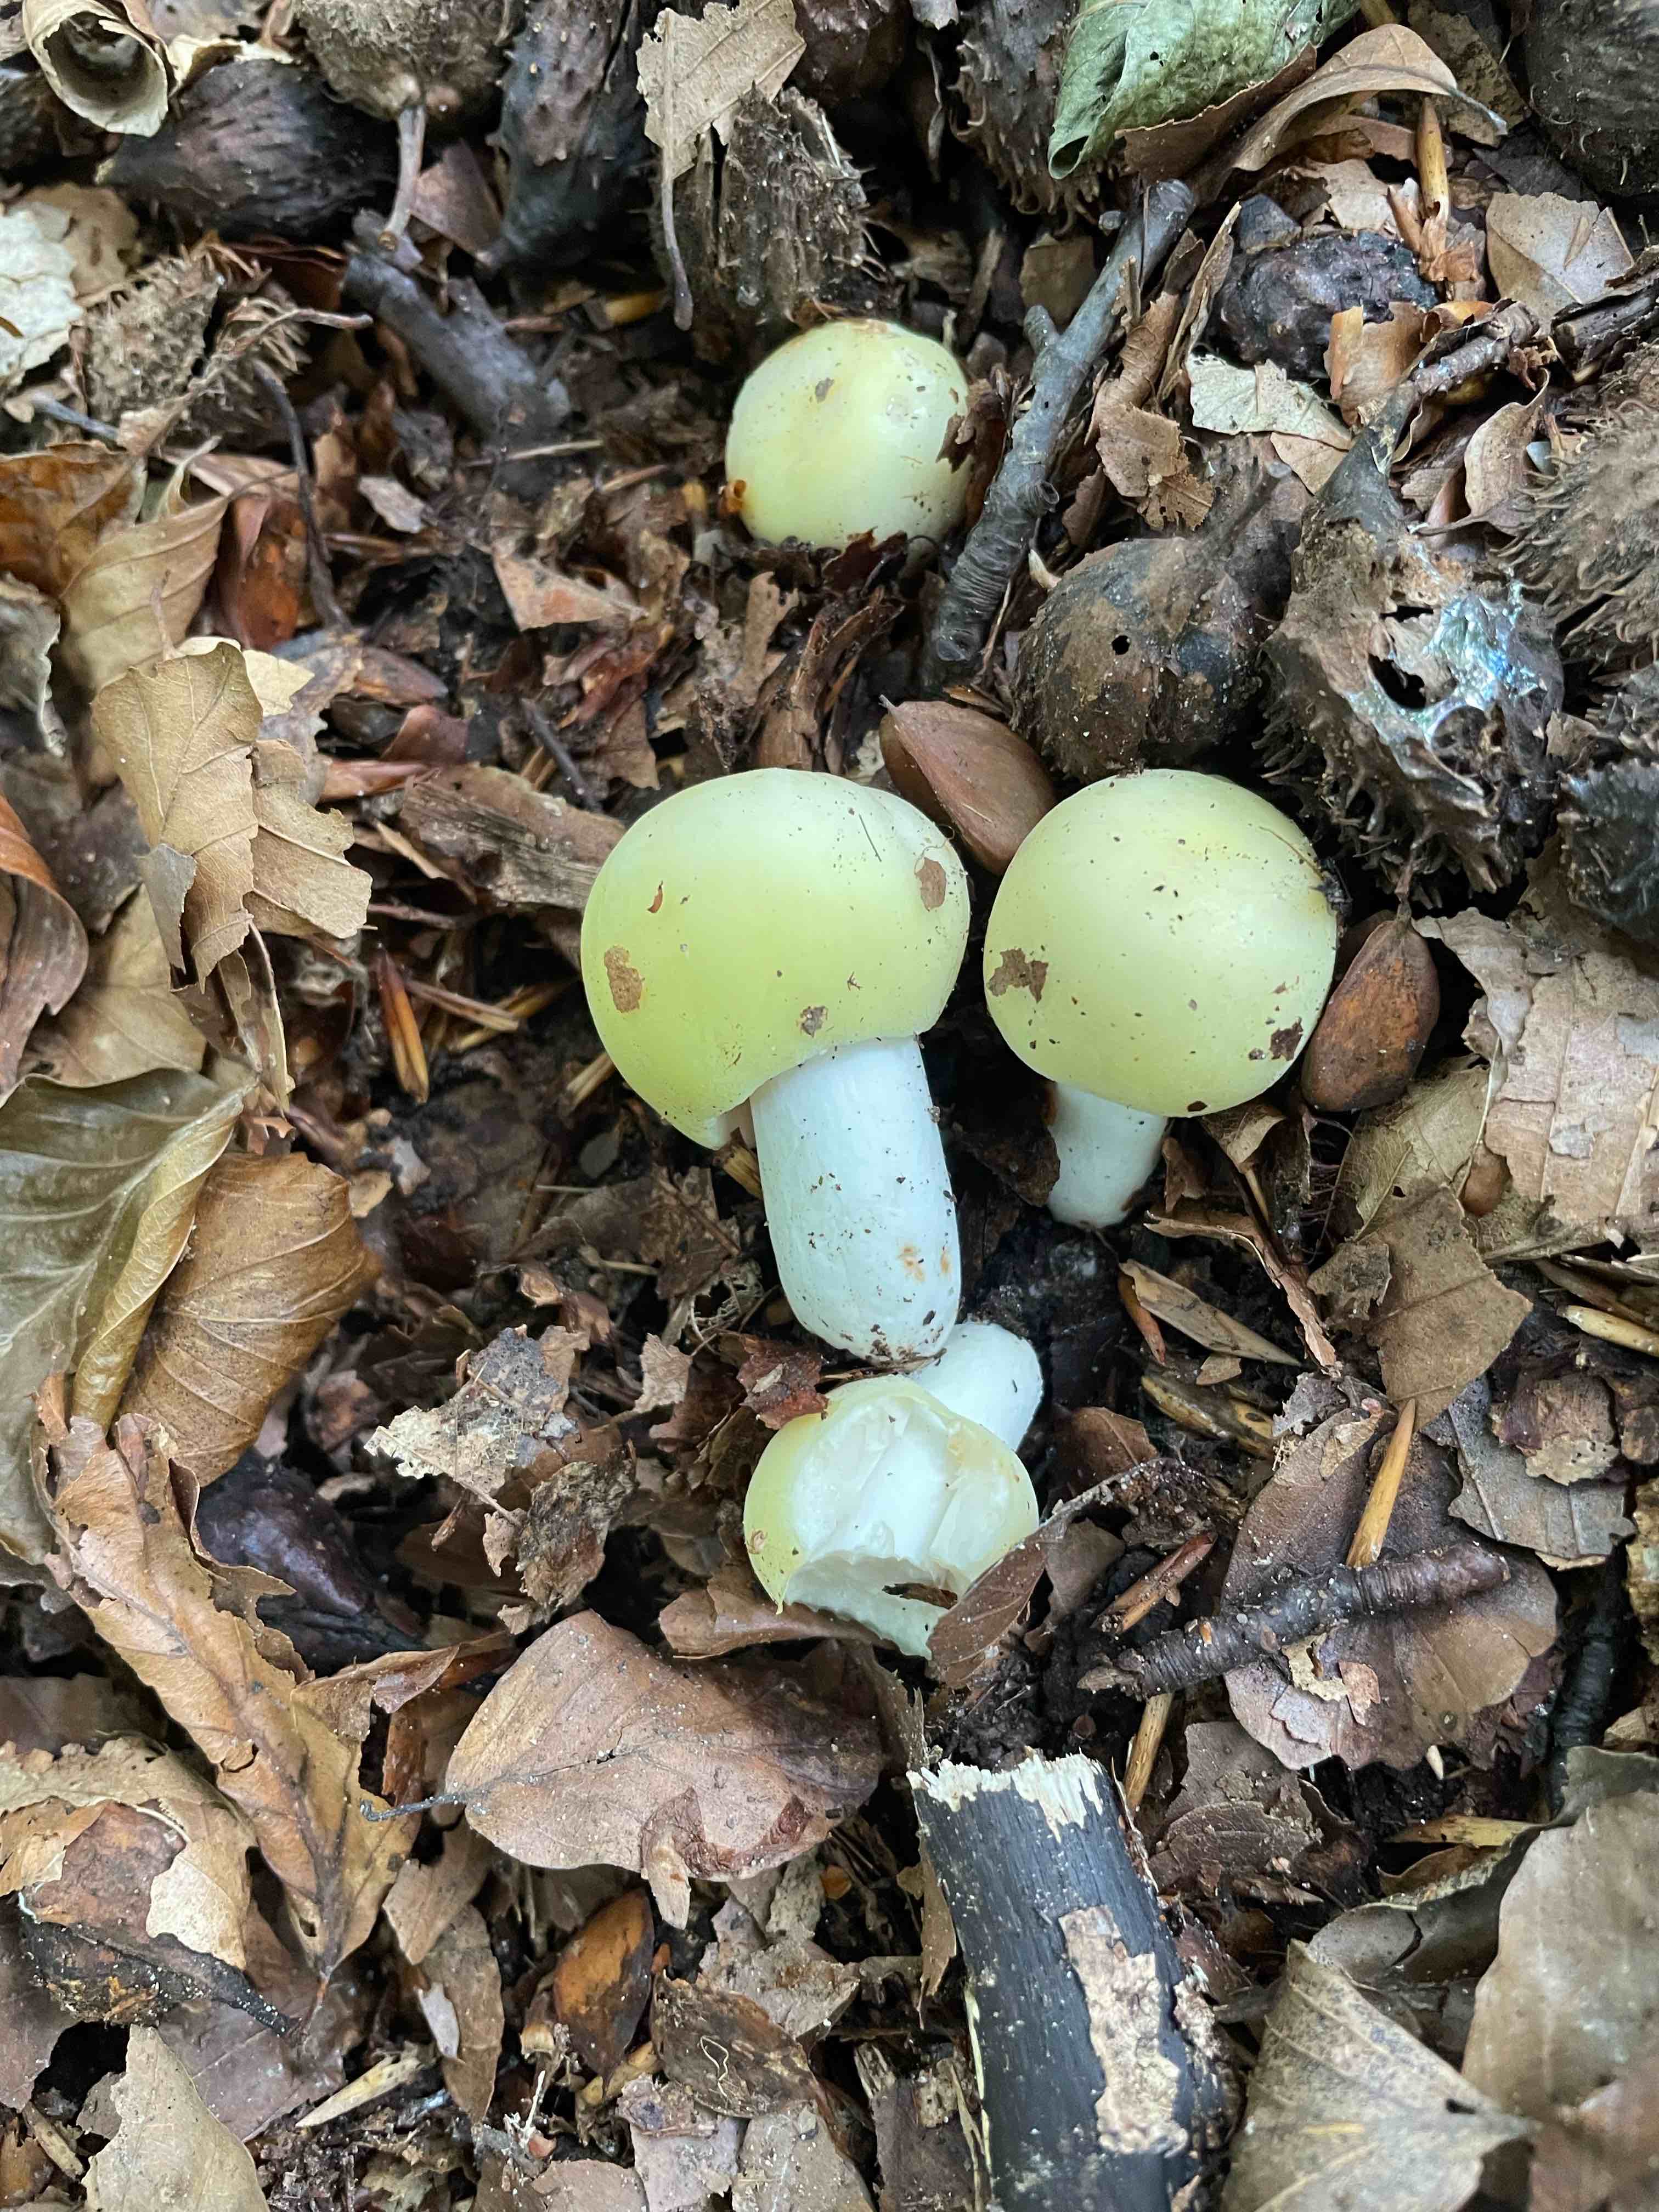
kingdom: Fungi
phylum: Basidiomycota
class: Agaricomycetes
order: Russulales
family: Russulaceae
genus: Russula
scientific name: Russula violeipes
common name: ferskengul skørhat
